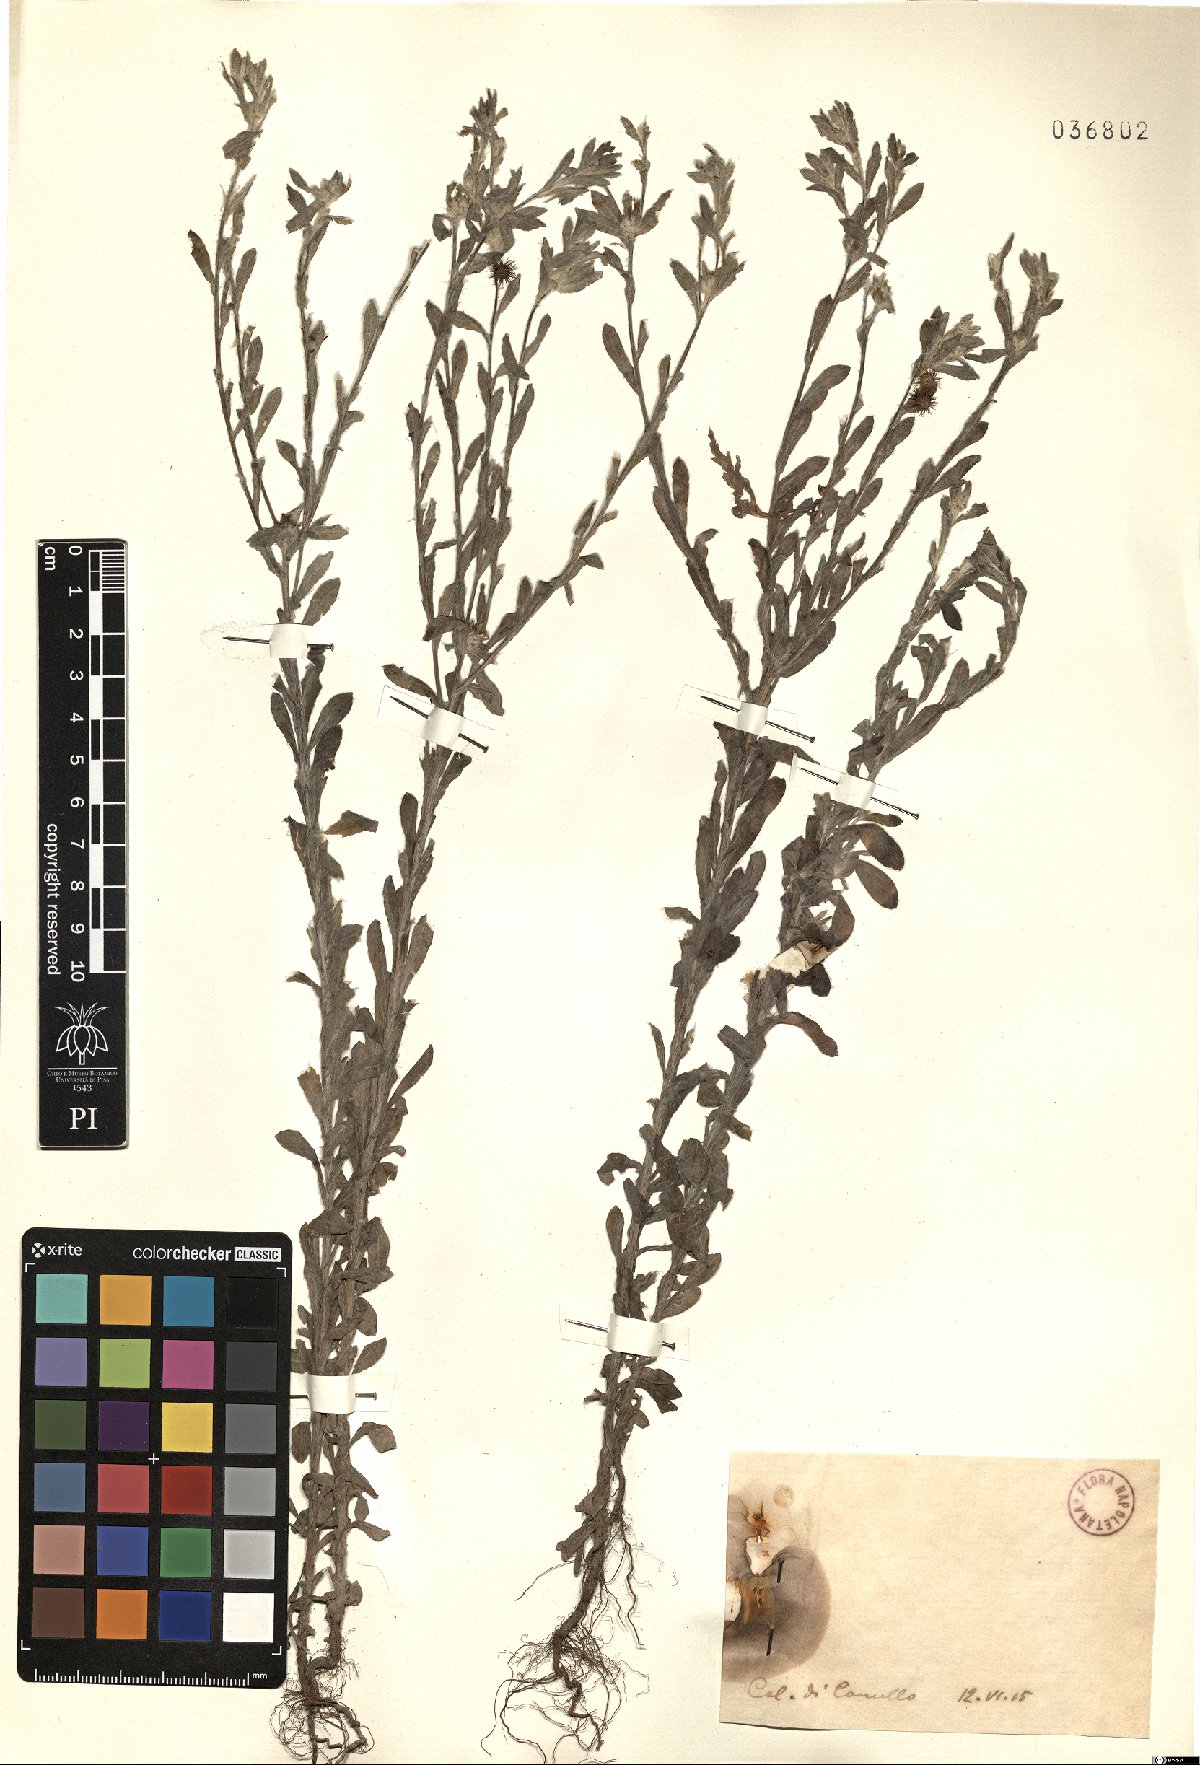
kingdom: Plantae
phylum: Tracheophyta
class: Magnoliopsida
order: Asterales
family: Asteraceae
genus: Filago
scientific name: Filago
